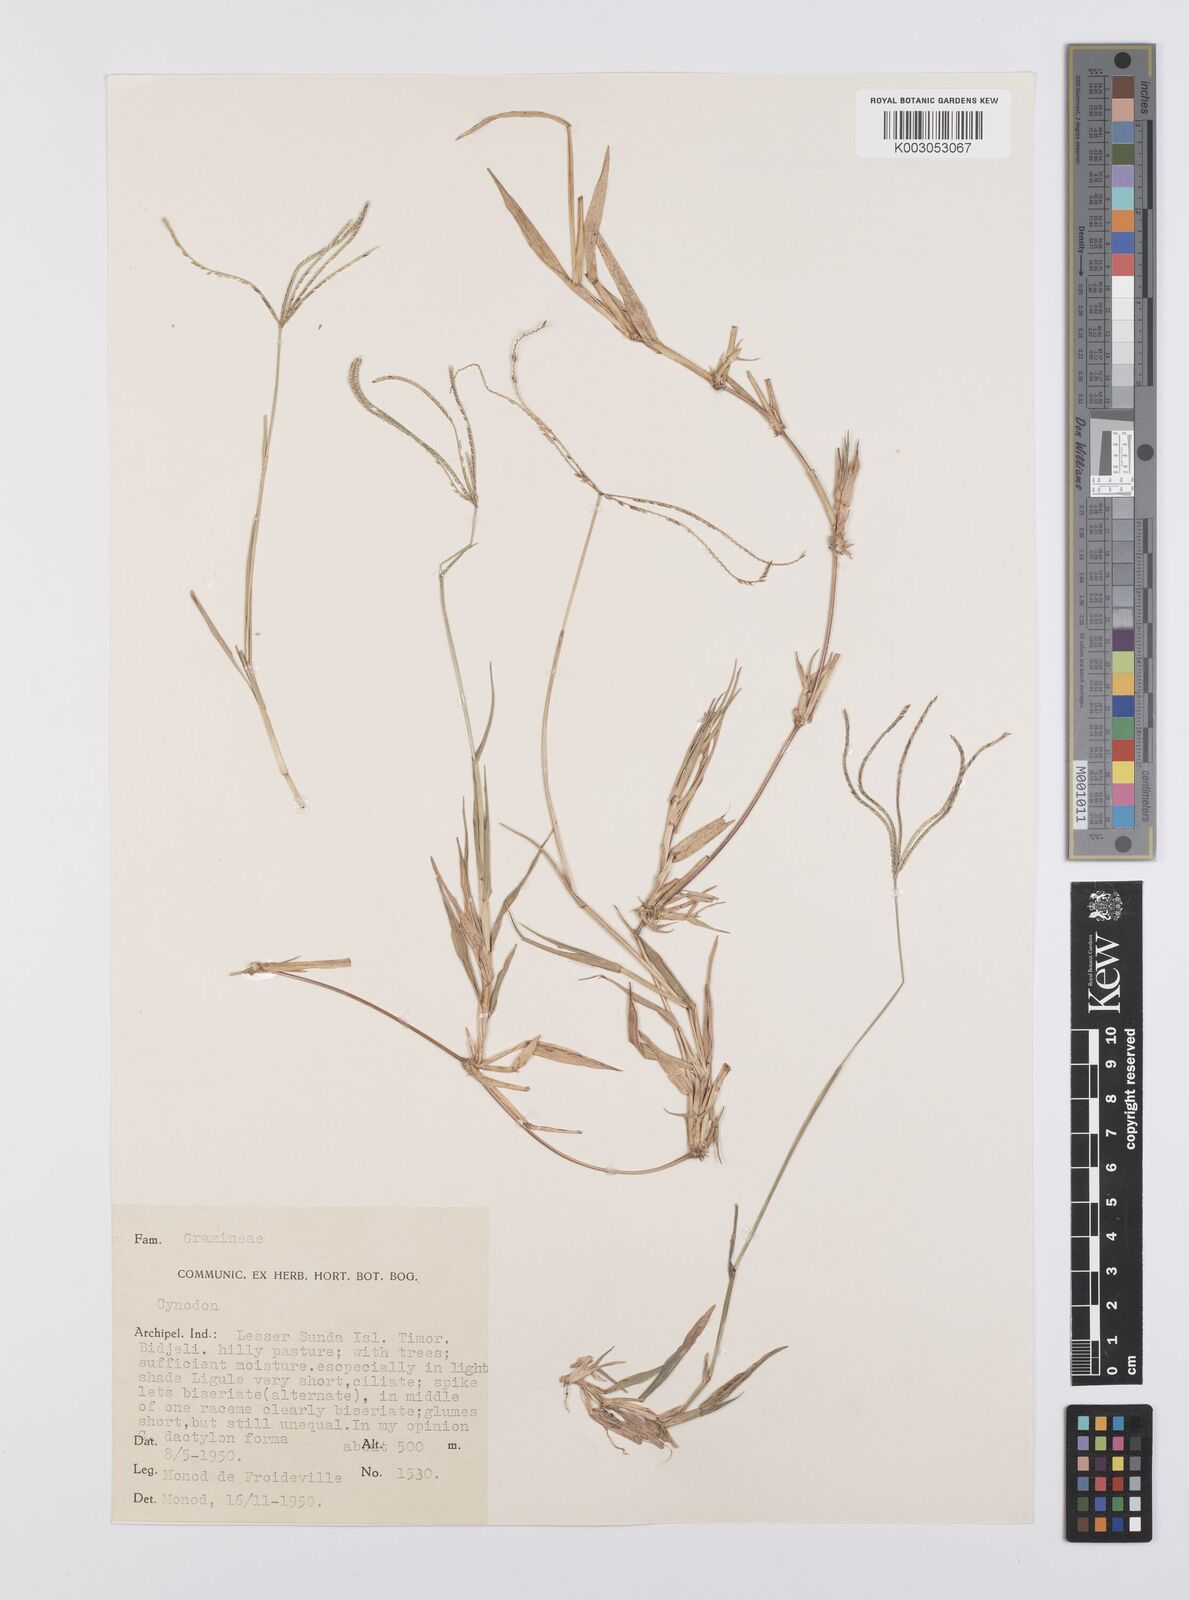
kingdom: Plantae
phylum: Tracheophyta
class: Liliopsida
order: Poales
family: Poaceae
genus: Cynodon
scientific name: Cynodon radiatus
